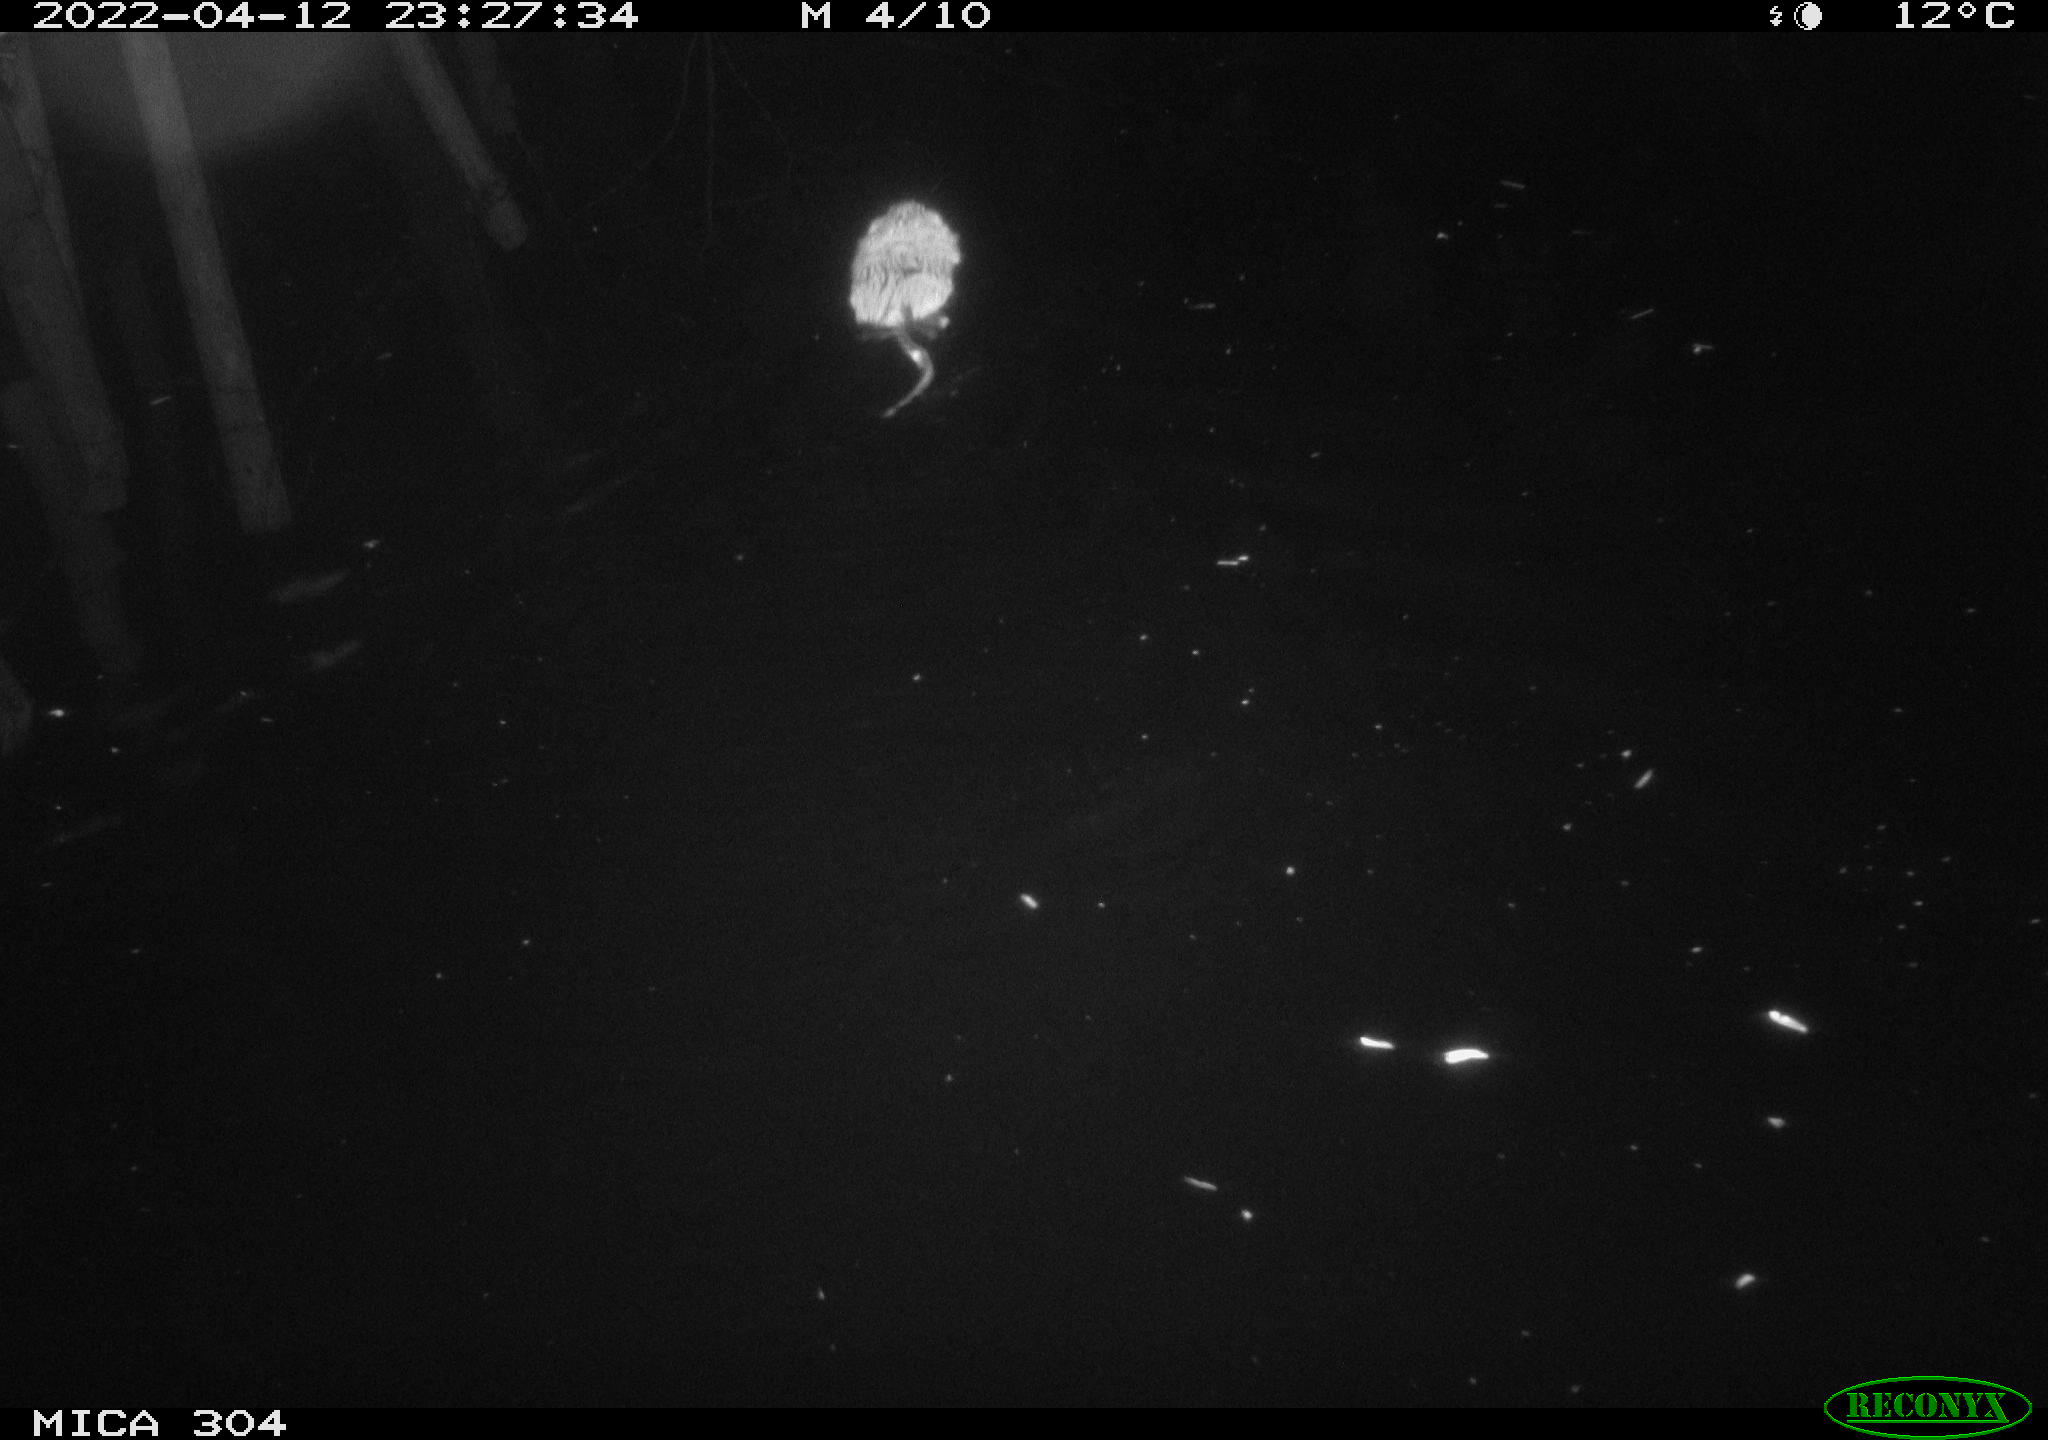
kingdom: Animalia
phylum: Chordata
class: Mammalia
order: Rodentia
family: Cricetidae
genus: Ondatra
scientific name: Ondatra zibethicus
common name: Muskrat
